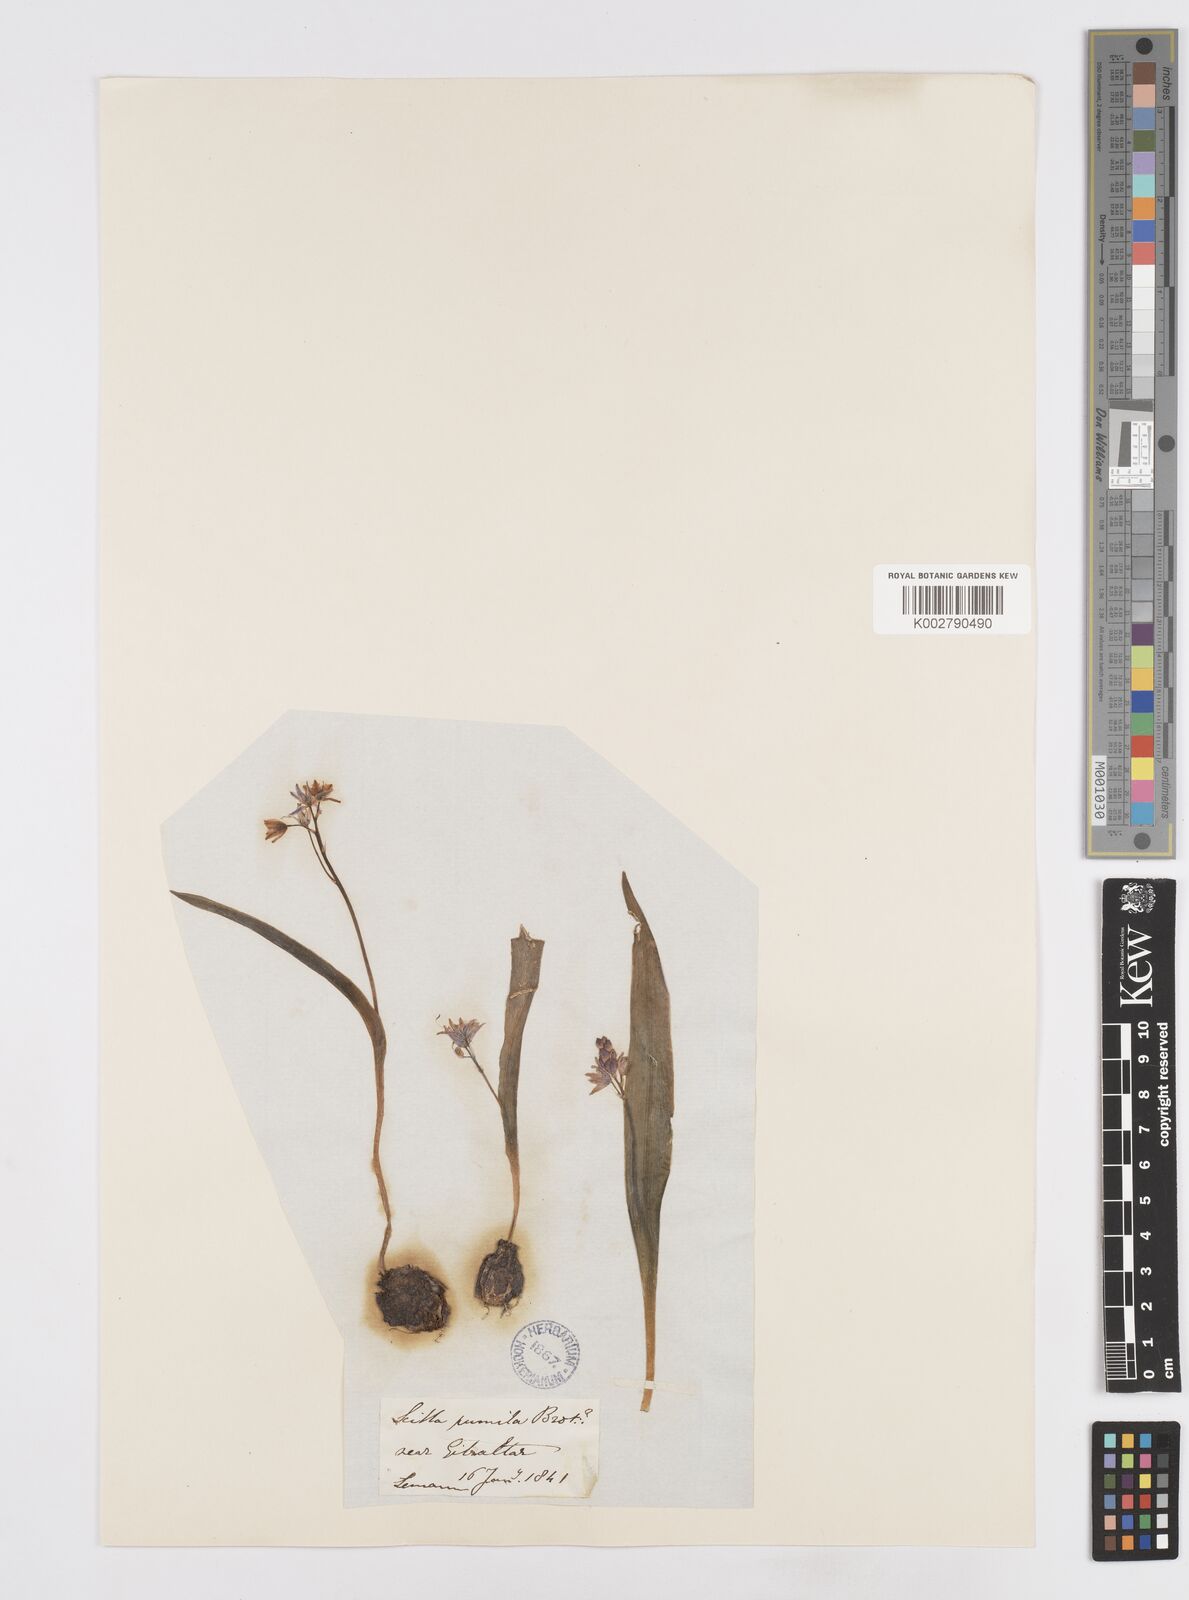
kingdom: Plantae
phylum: Tracheophyta
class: Liliopsida
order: Asparagales
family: Asparagaceae
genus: Scilla
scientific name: Scilla monophyllos
